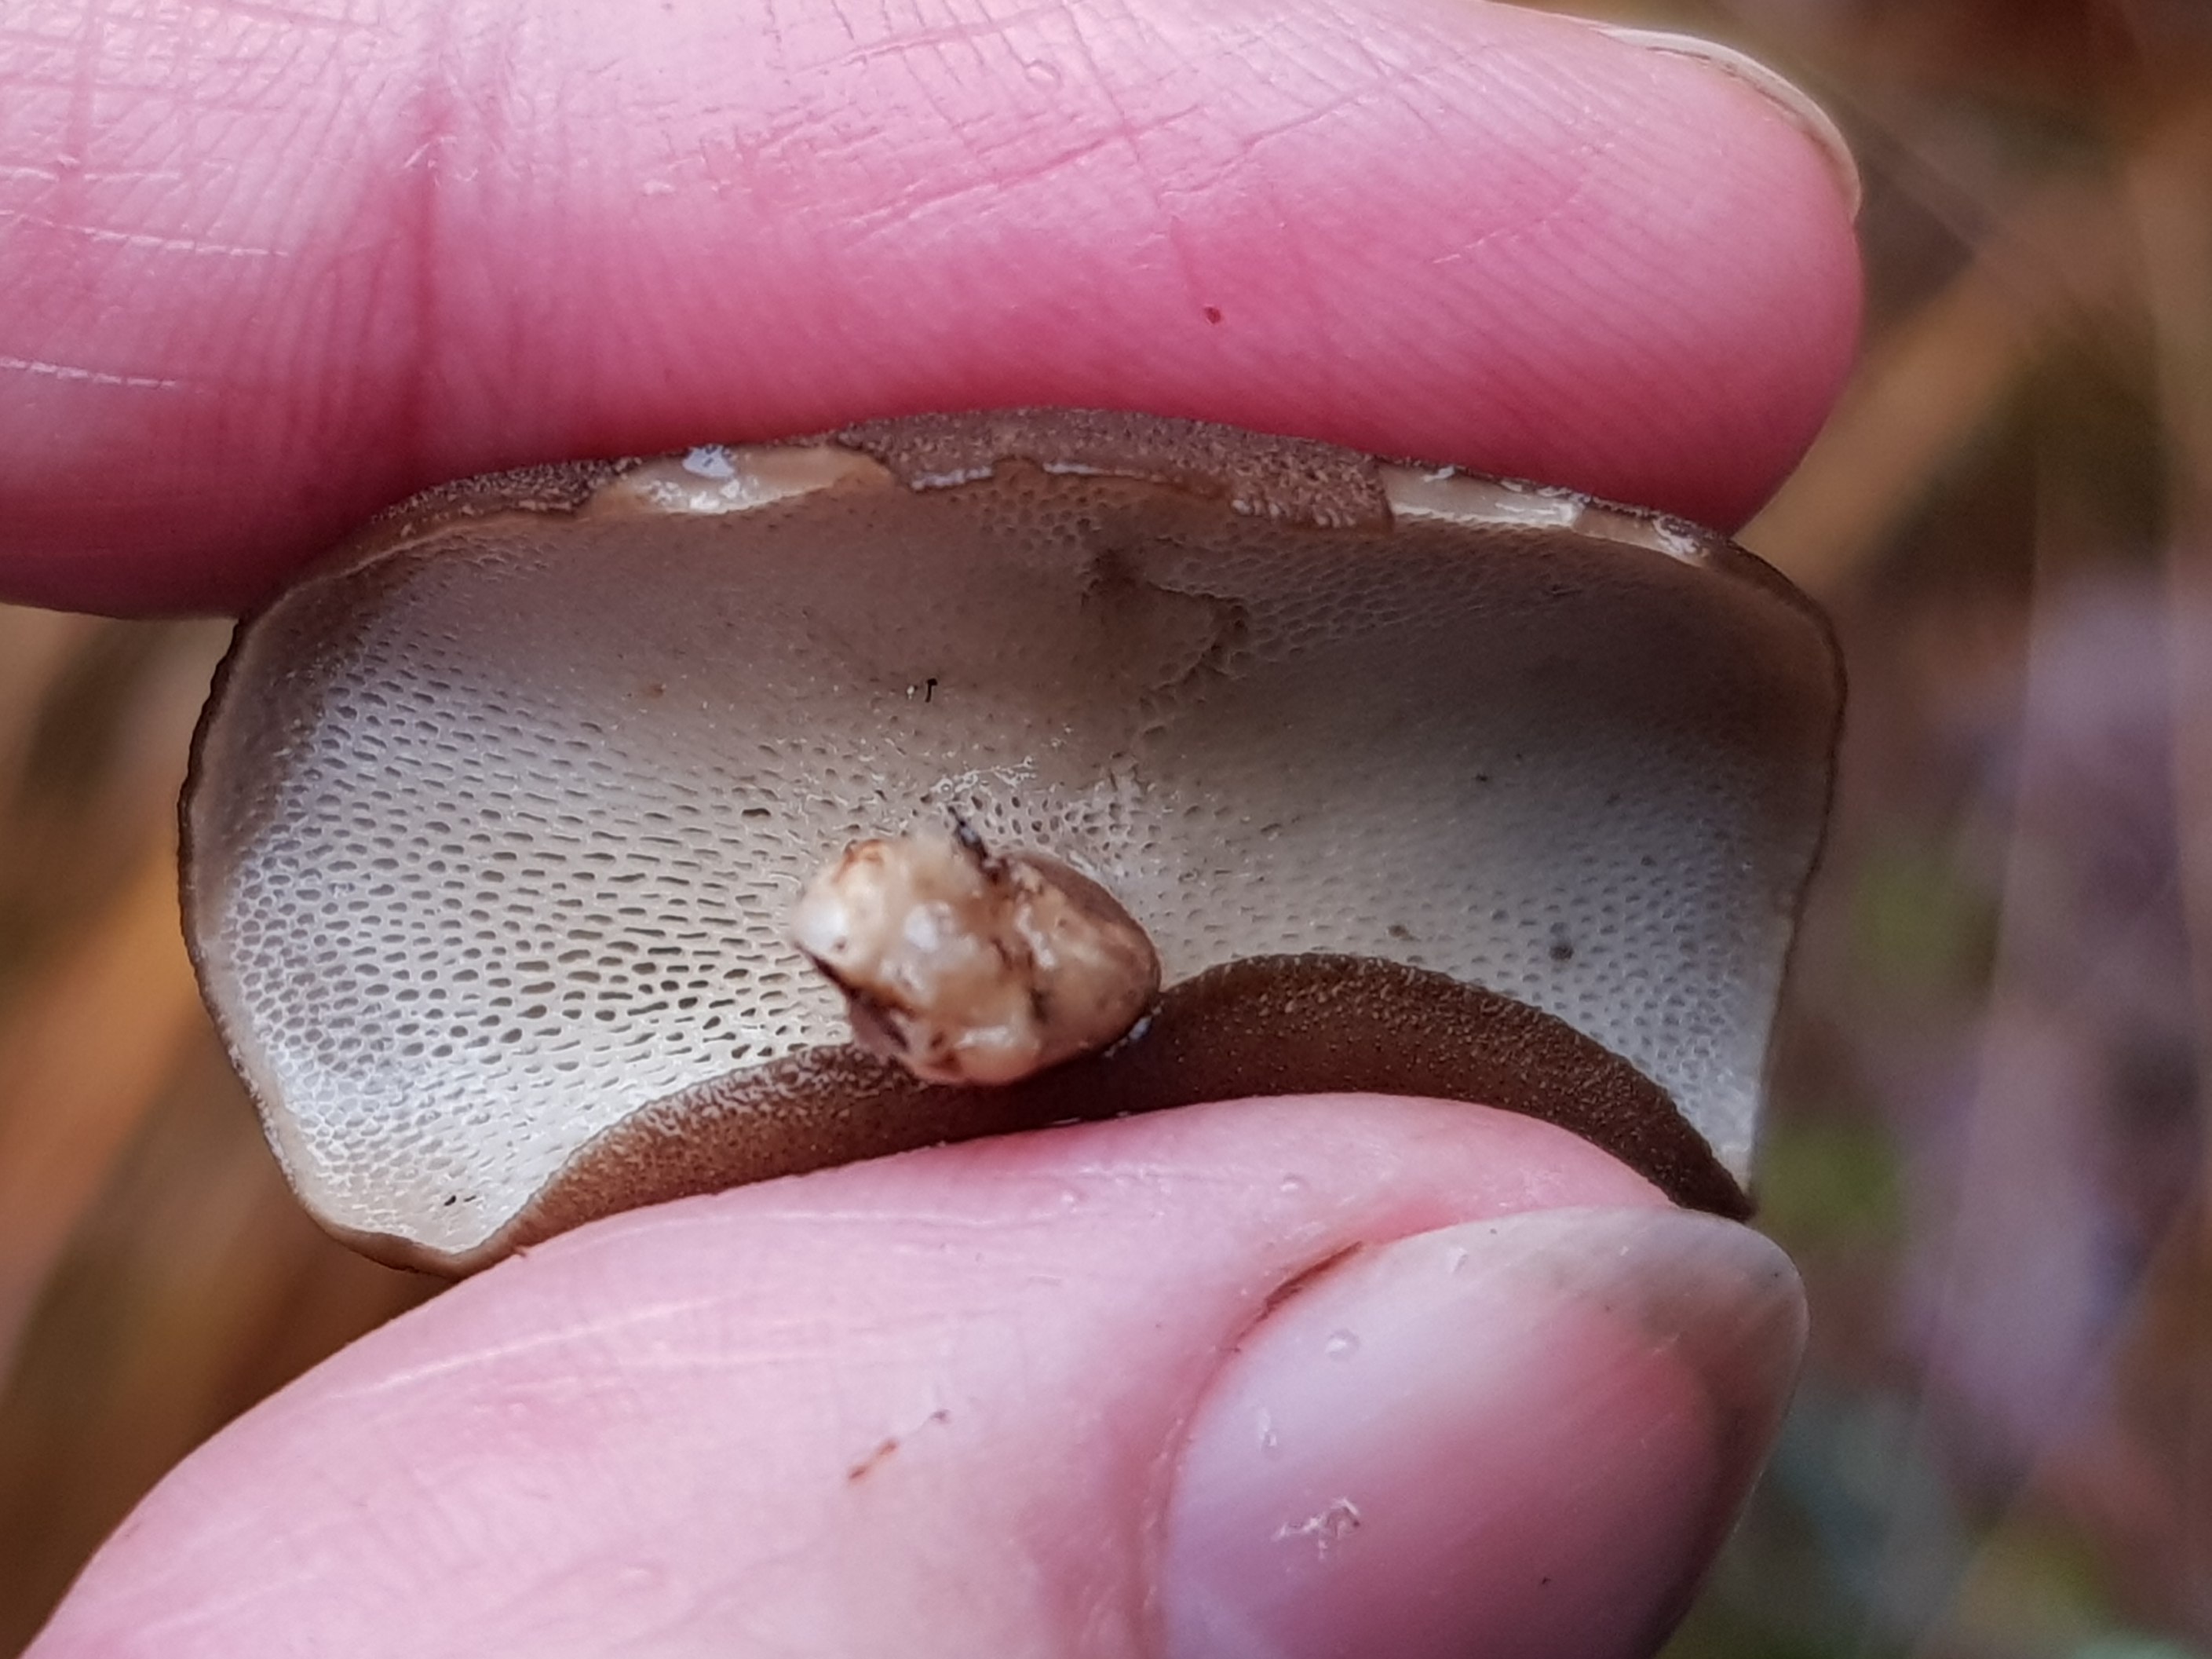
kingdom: Fungi
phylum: Basidiomycota
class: Agaricomycetes
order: Polyporales
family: Polyporaceae
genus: Lentinus
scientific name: Lentinus brumalis
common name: vinter-stilkporesvamp
